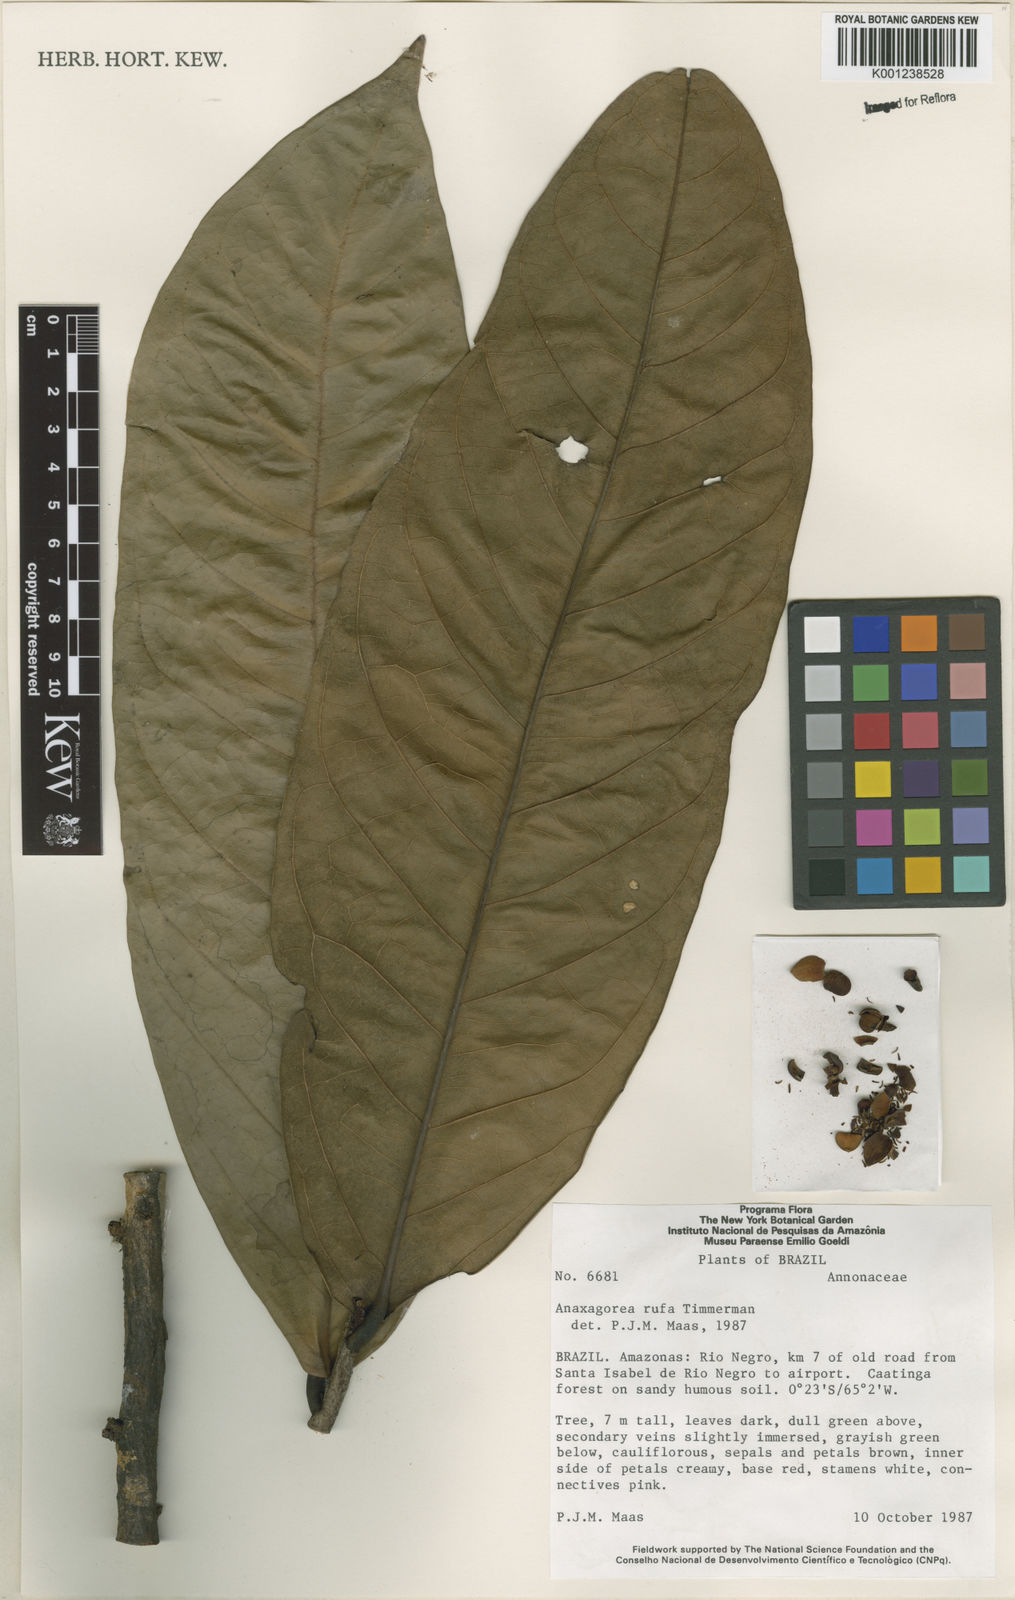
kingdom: Plantae
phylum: Tracheophyta
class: Magnoliopsida
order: Magnoliales
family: Annonaceae
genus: Anaxagorea
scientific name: Anaxagorea rufa
